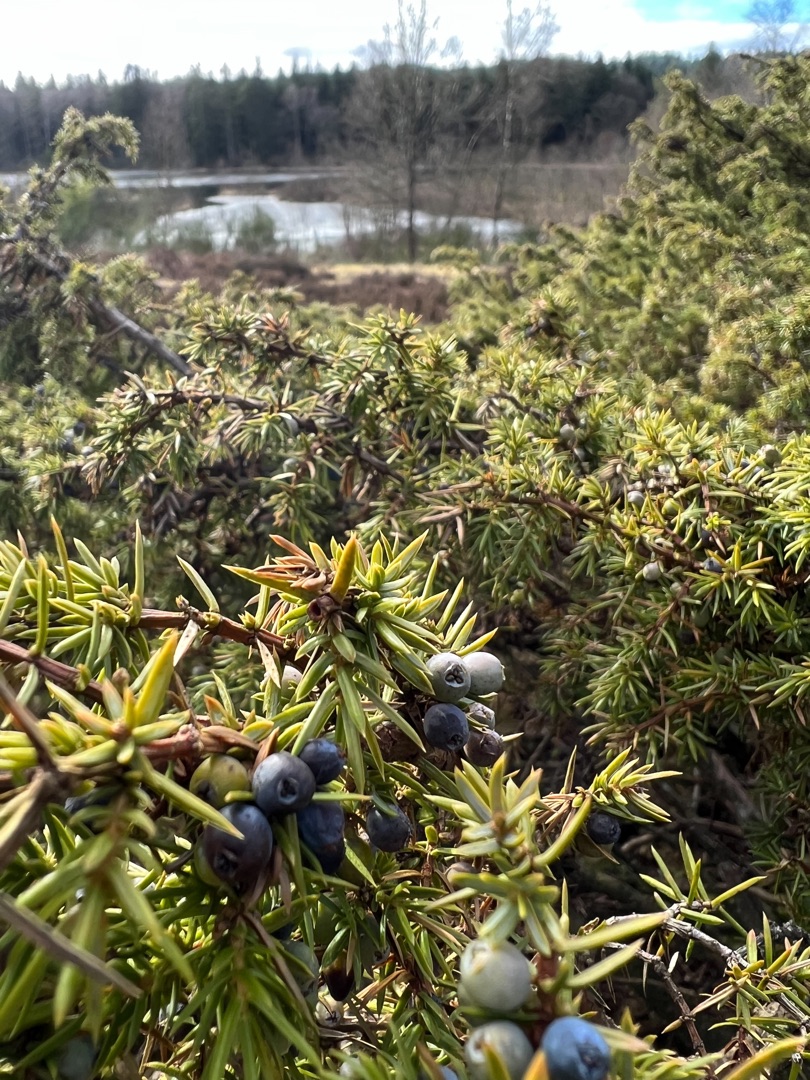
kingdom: Plantae
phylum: Tracheophyta
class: Pinopsida
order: Pinales
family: Cupressaceae
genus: Juniperus
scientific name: Juniperus communis
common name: Almindelig ene
